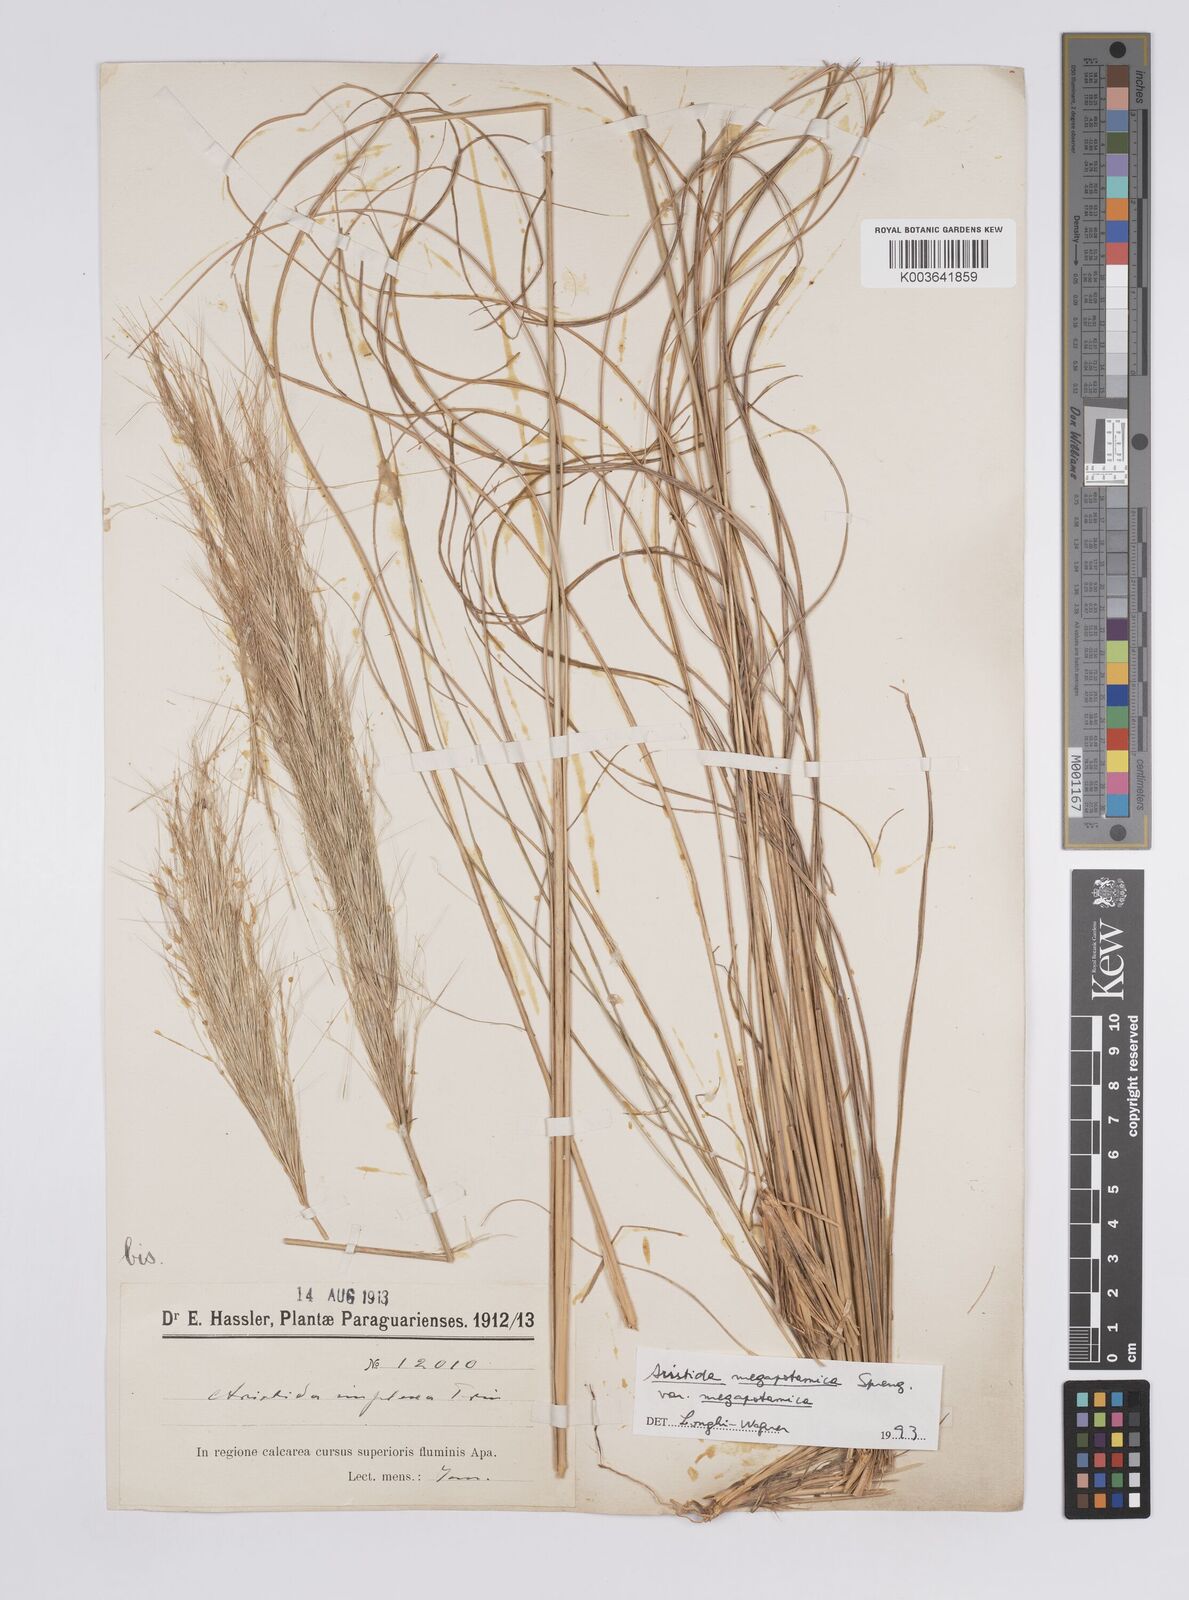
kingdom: Plantae
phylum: Tracheophyta
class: Liliopsida
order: Poales
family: Poaceae
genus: Aristida
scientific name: Aristida megapotamica
